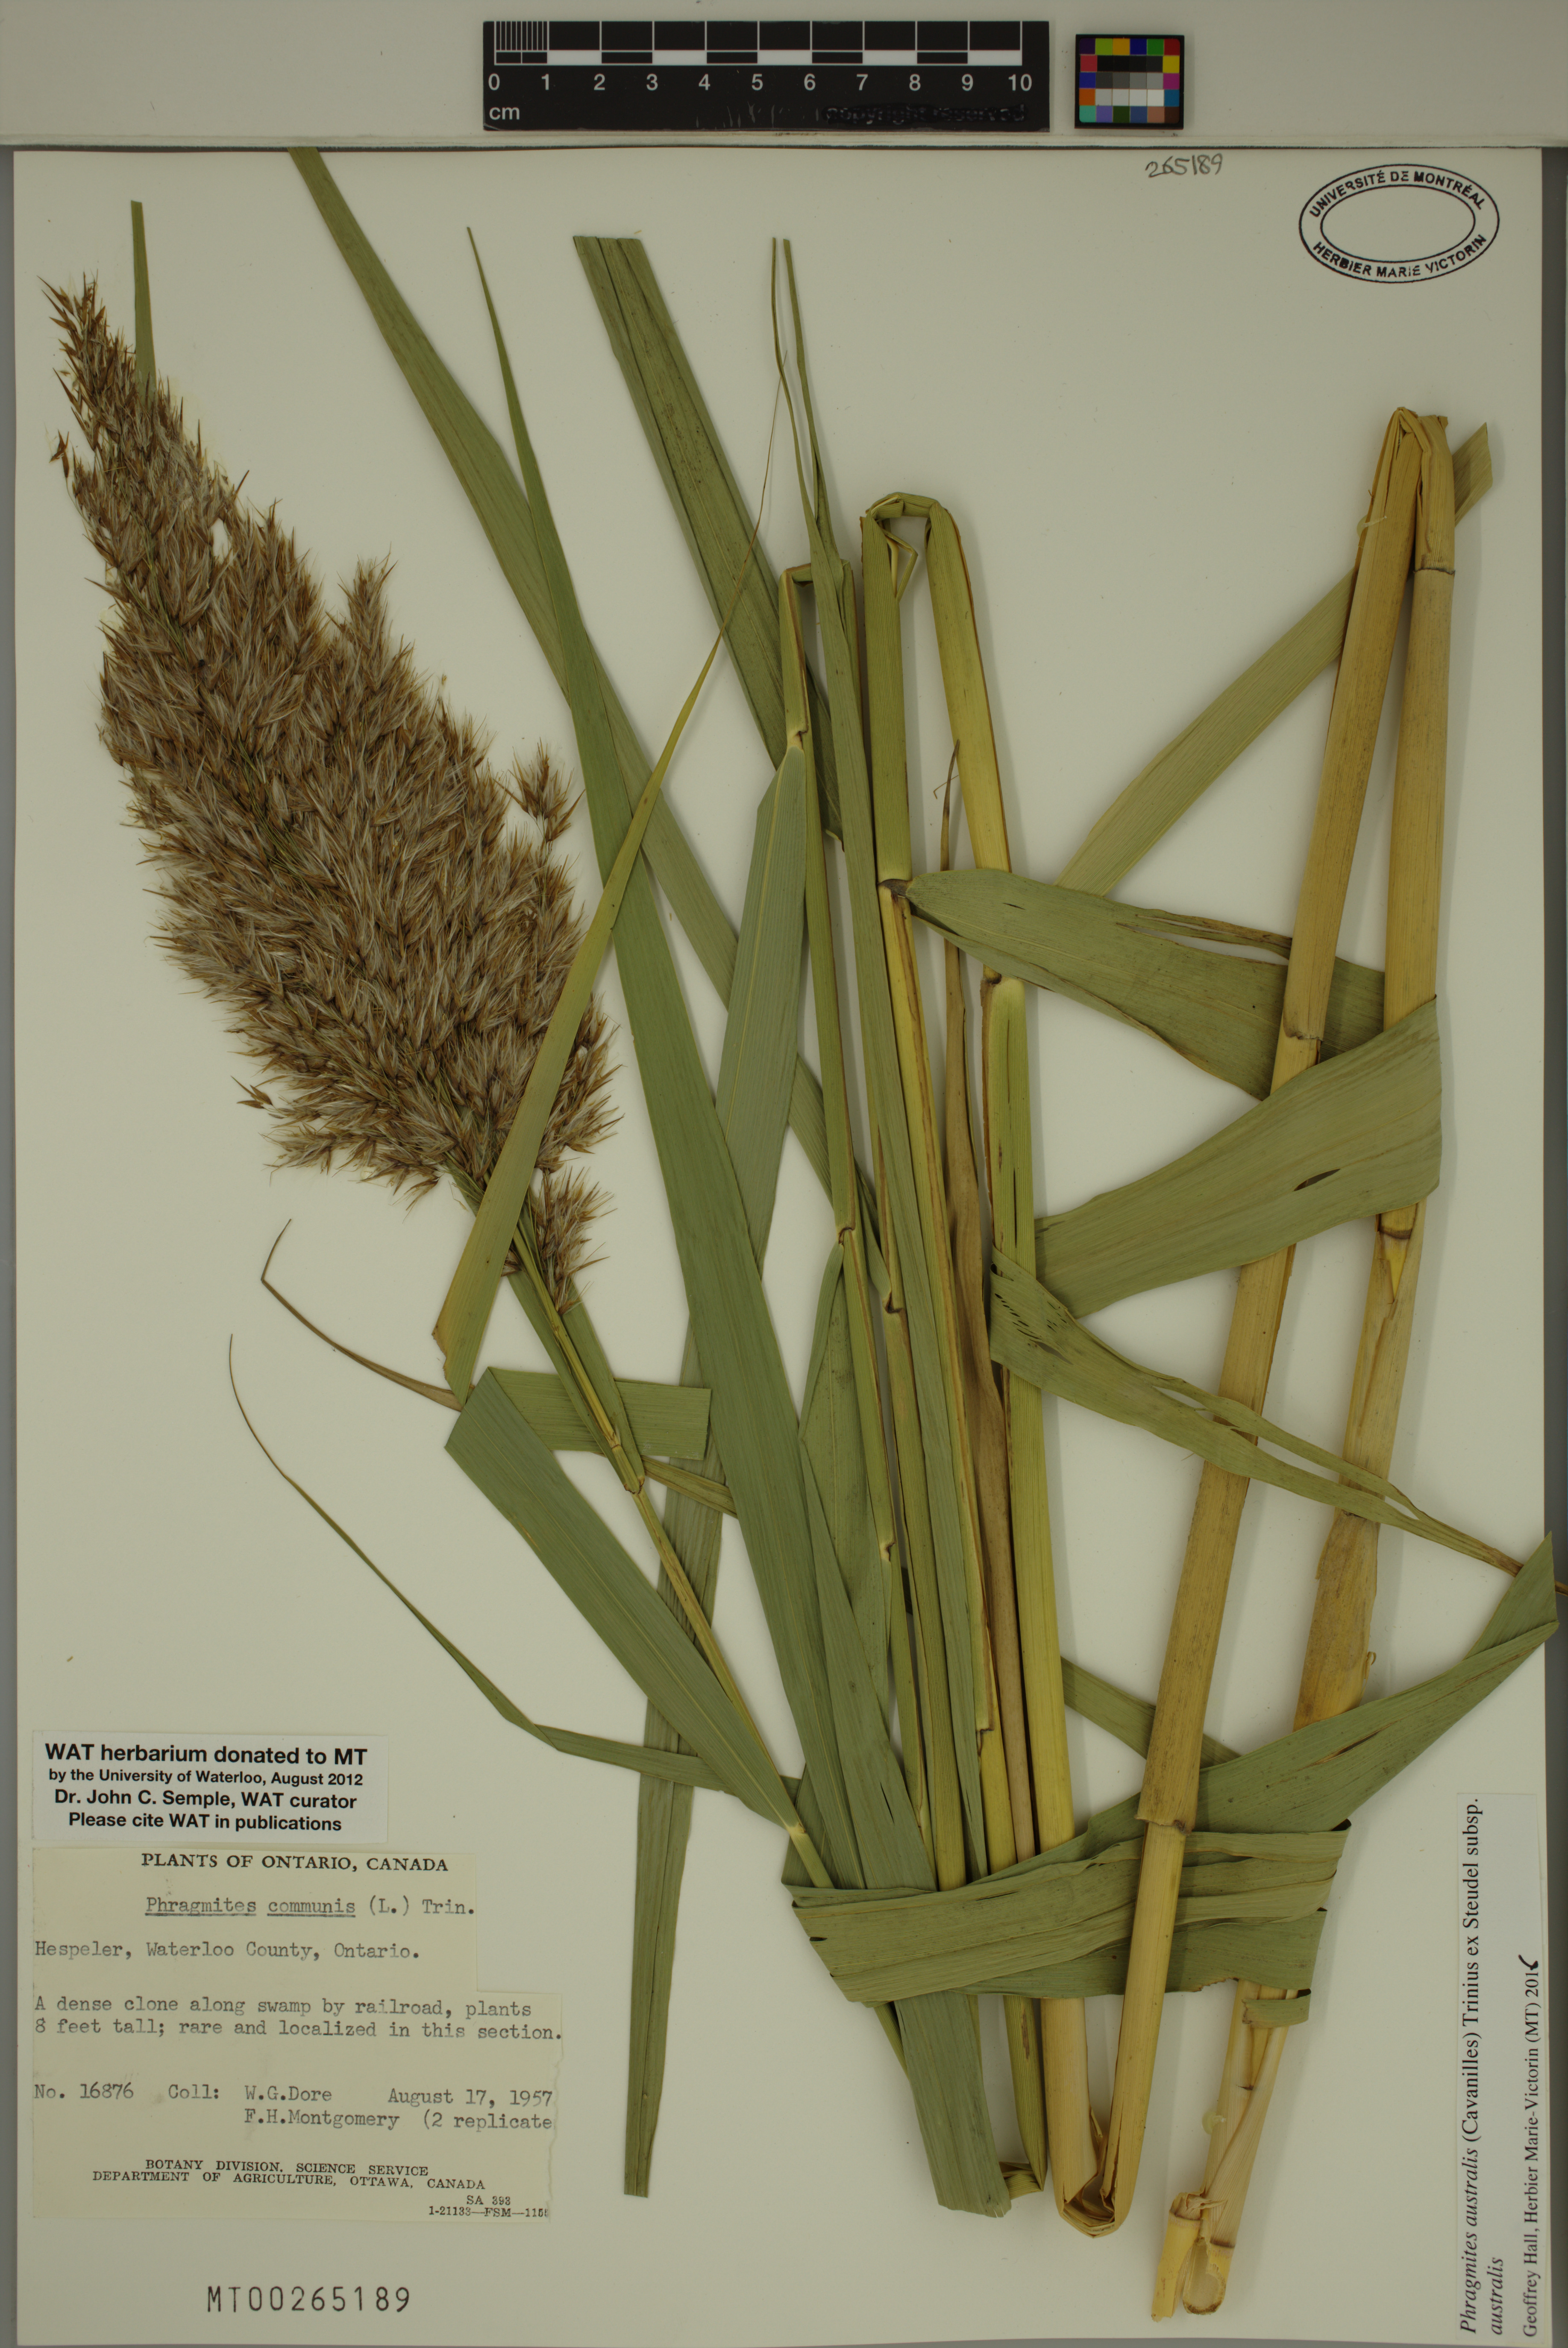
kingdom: Plantae
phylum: Tracheophyta
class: Liliopsida
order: Poales
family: Poaceae
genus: Phragmites
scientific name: Phragmites australis
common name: Common reed
